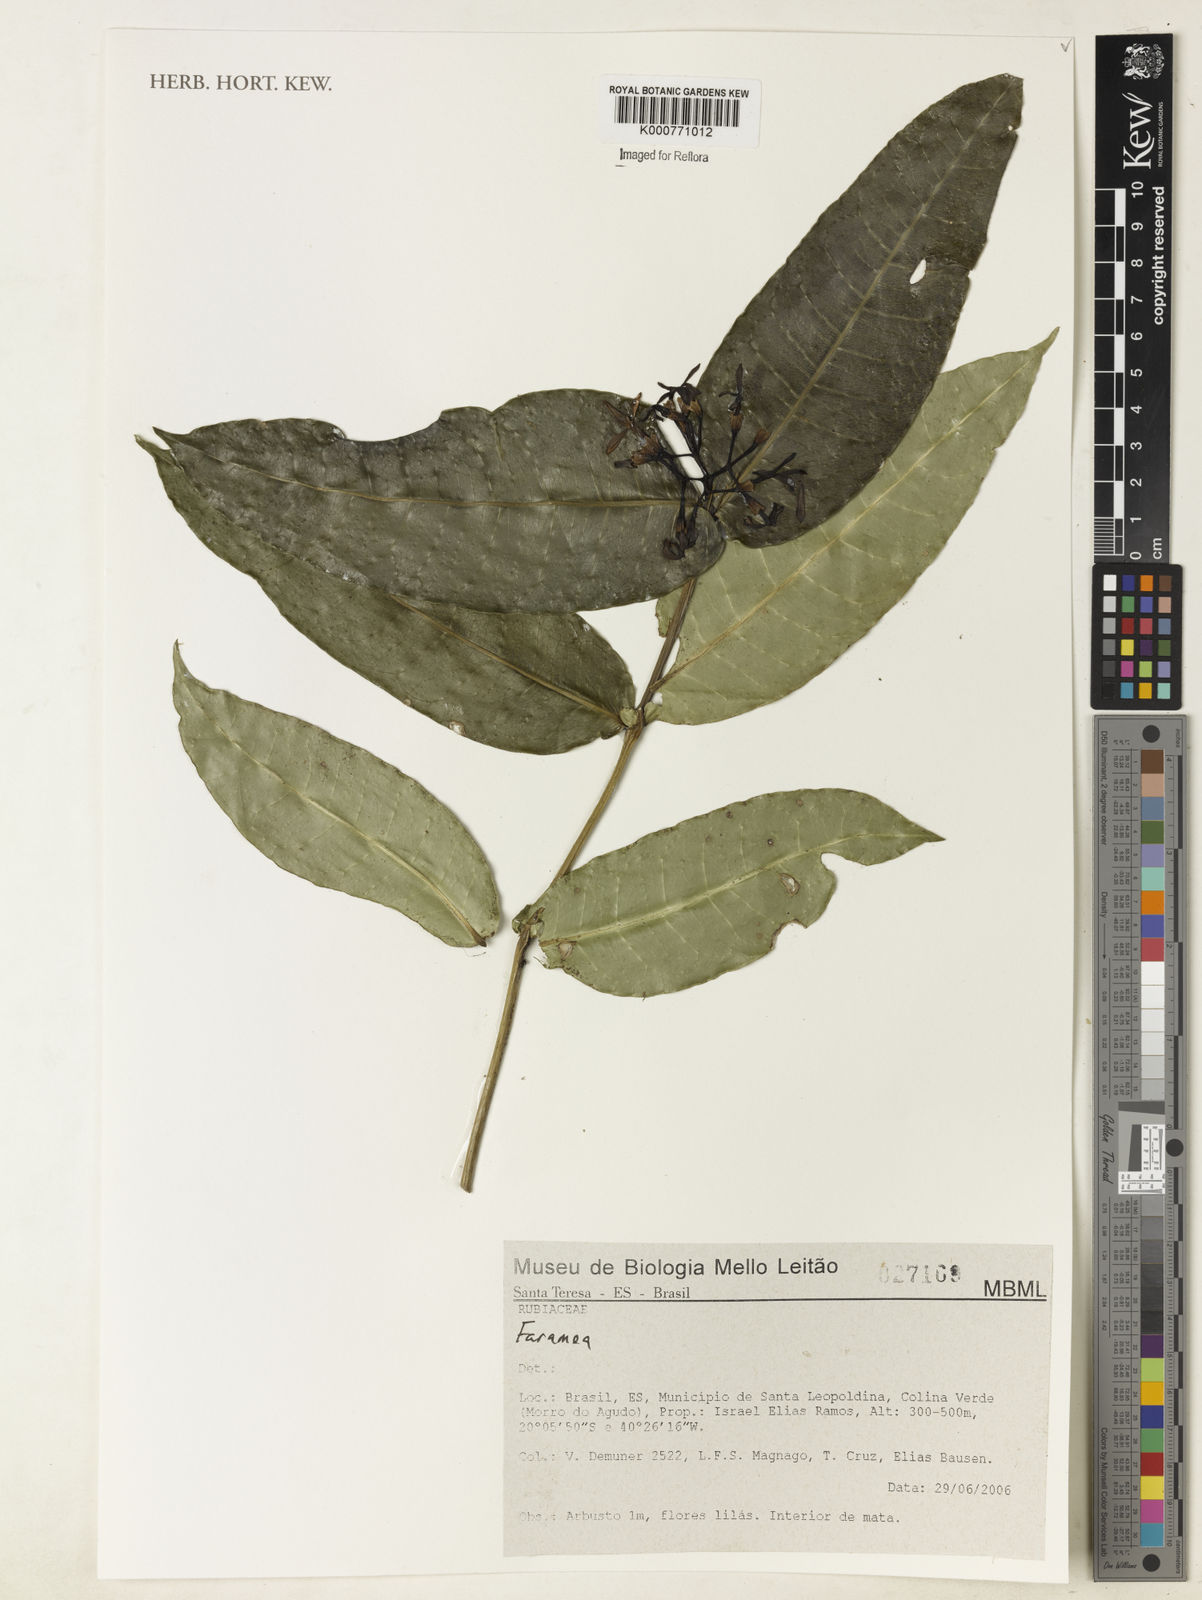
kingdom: Plantae
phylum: Tracheophyta
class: Magnoliopsida
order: Gentianales
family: Rubiaceae
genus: Faramea
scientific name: Faramea
